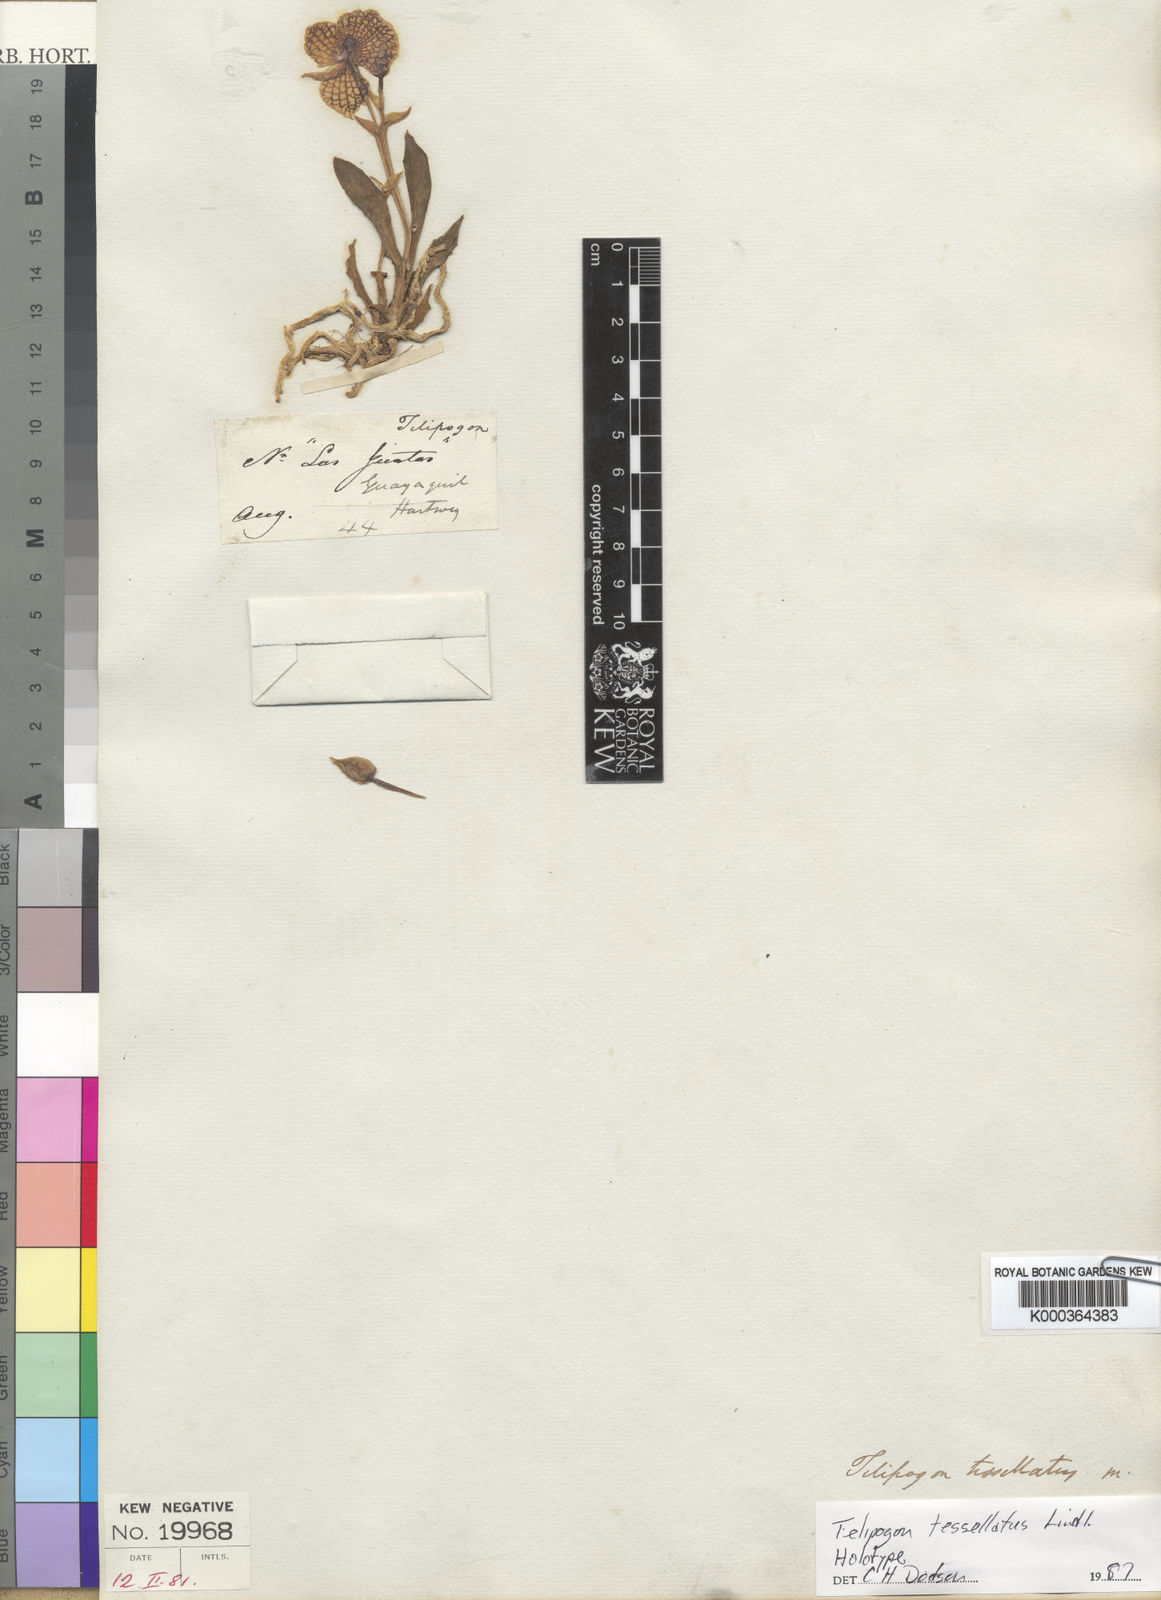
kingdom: Plantae
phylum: Tracheophyta
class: Liliopsida
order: Asparagales
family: Orchidaceae
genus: Telipogon
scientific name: Telipogon tesselatus
